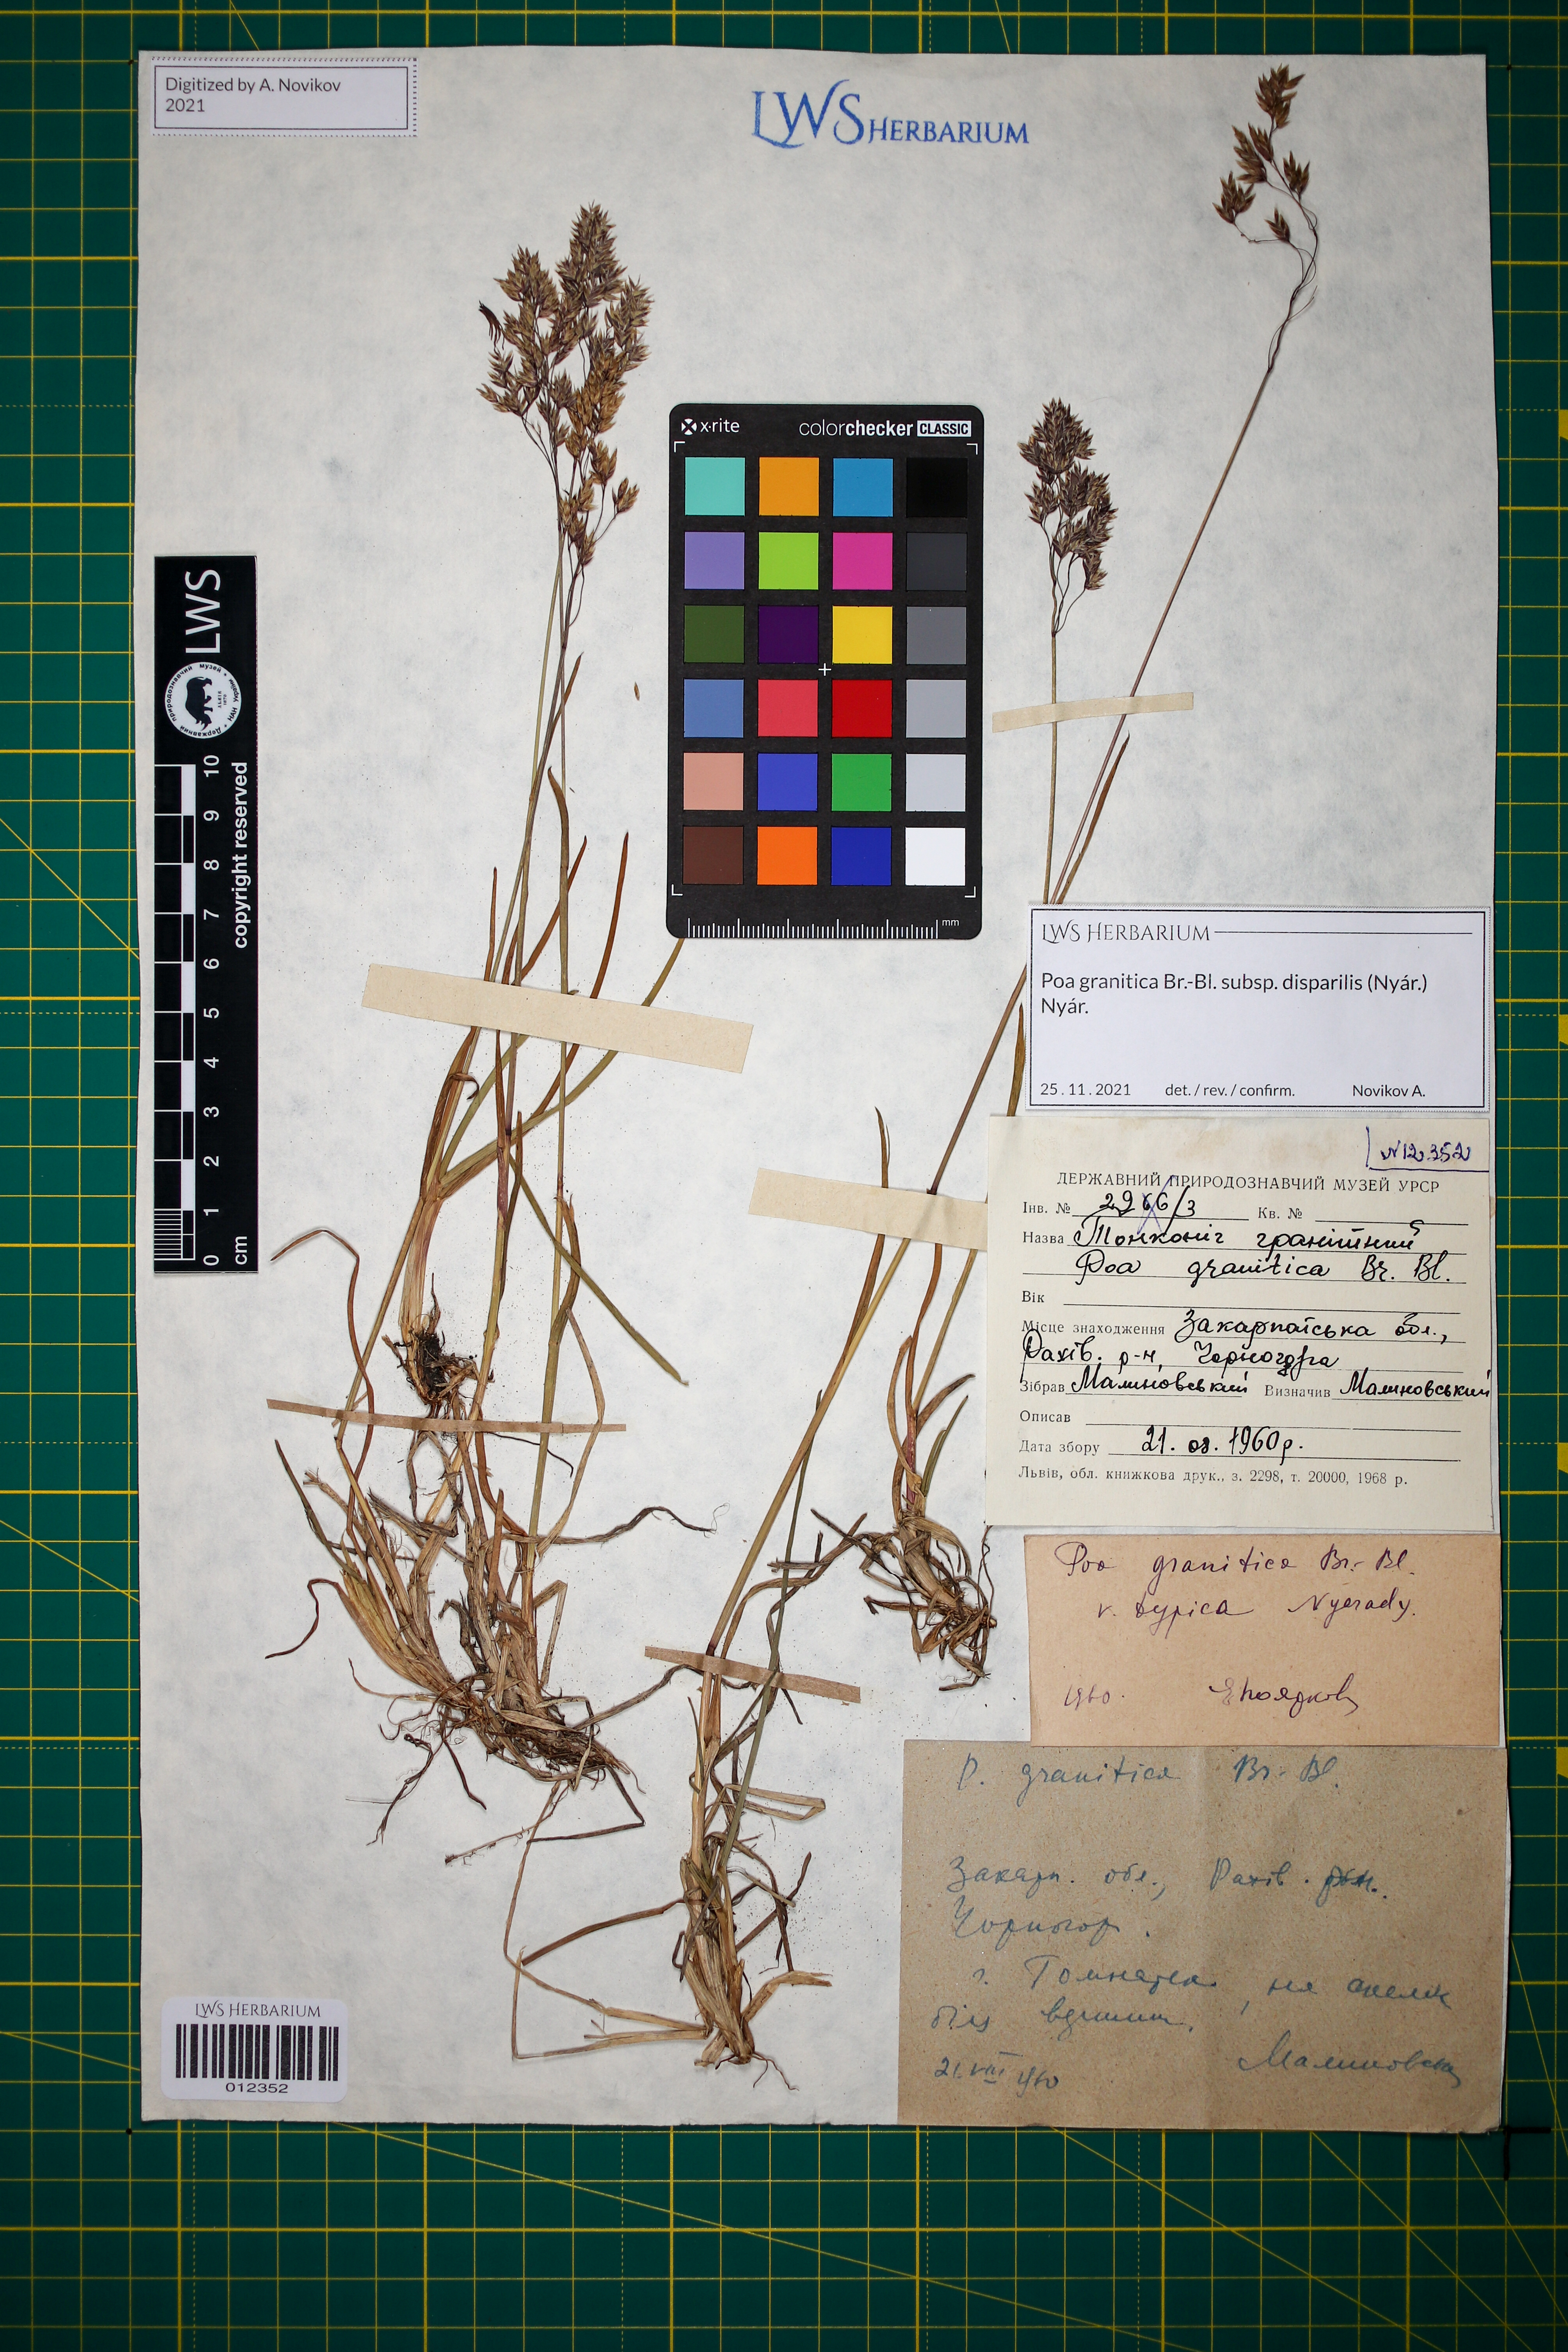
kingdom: Plantae
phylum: Tracheophyta
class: Liliopsida
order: Poales
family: Poaceae
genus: Poa
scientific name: Poa granitica
